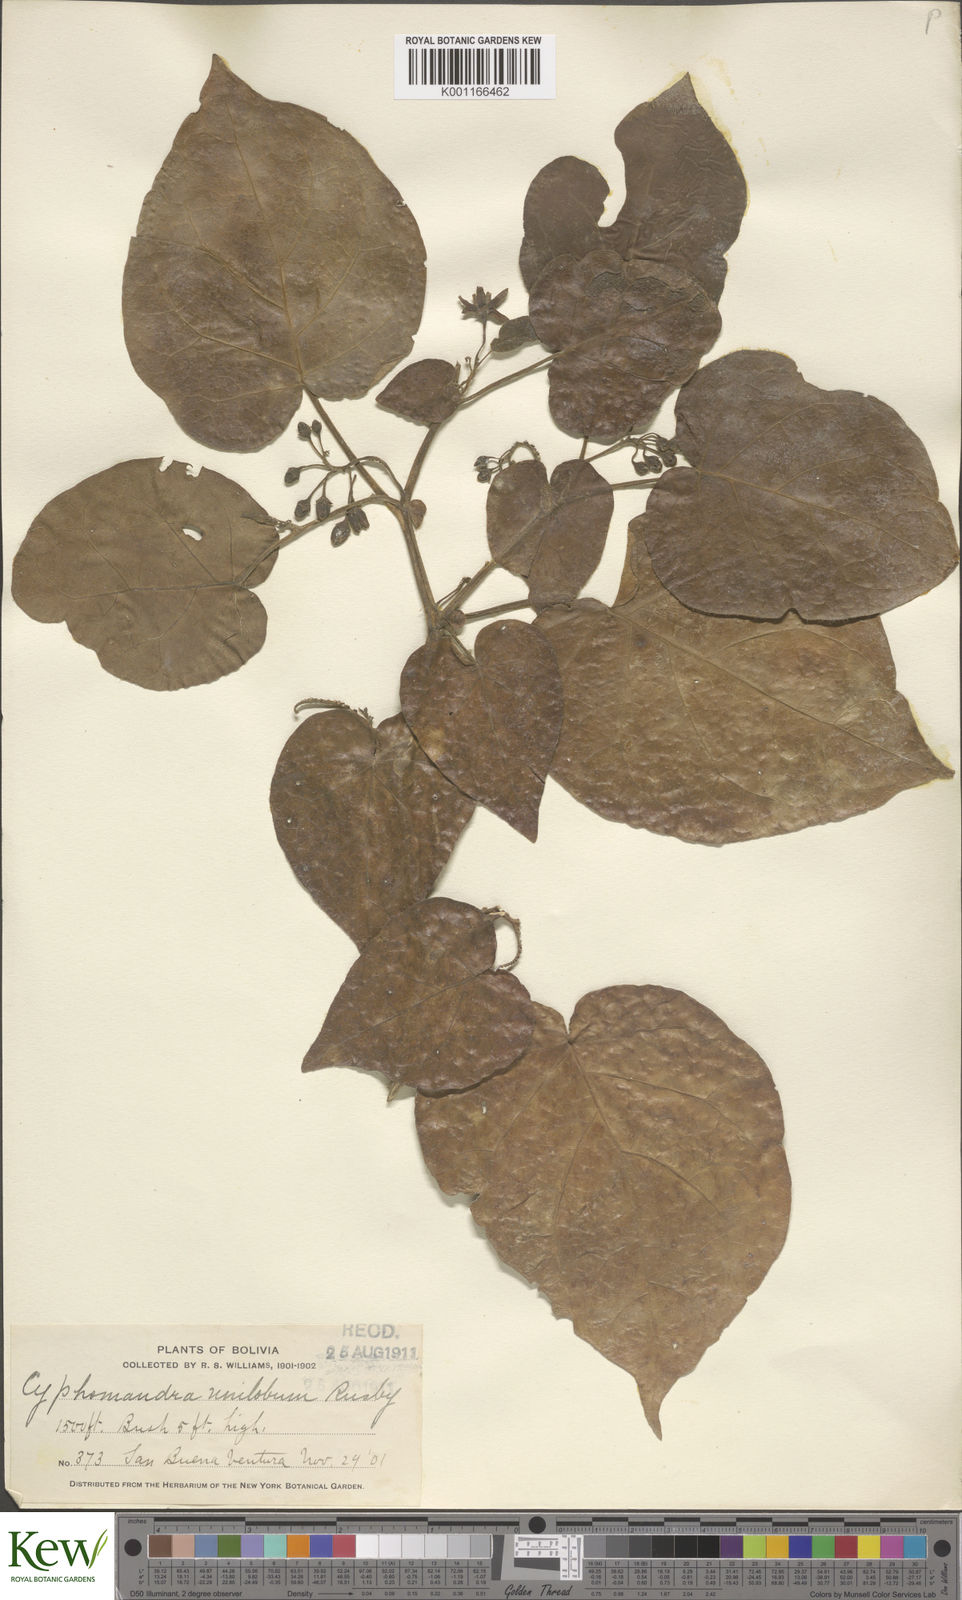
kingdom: Plantae
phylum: Tracheophyta
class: Magnoliopsida
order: Solanales
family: Solanaceae
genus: Solanum
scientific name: Solanum unilobum
